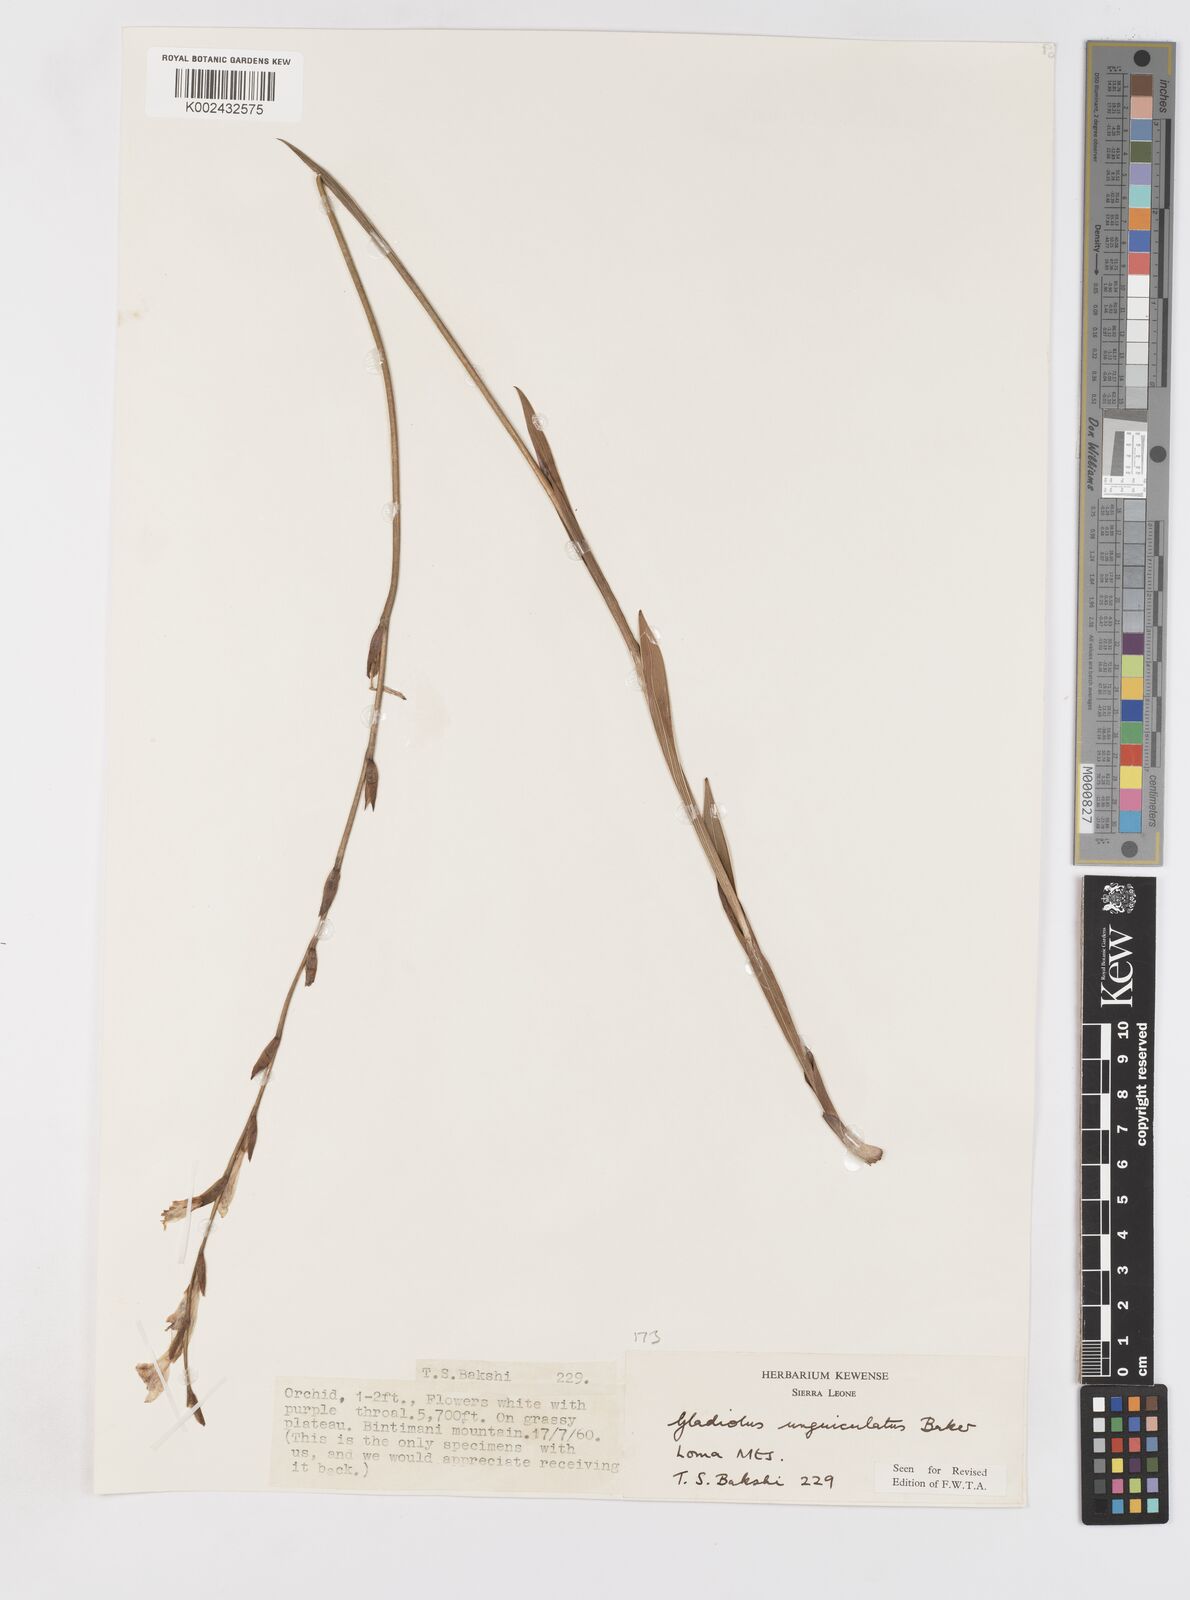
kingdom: Plantae
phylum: Tracheophyta
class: Liliopsida
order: Asparagales
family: Iridaceae
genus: Gladiolus
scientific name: Gladiolus unguiculatus
